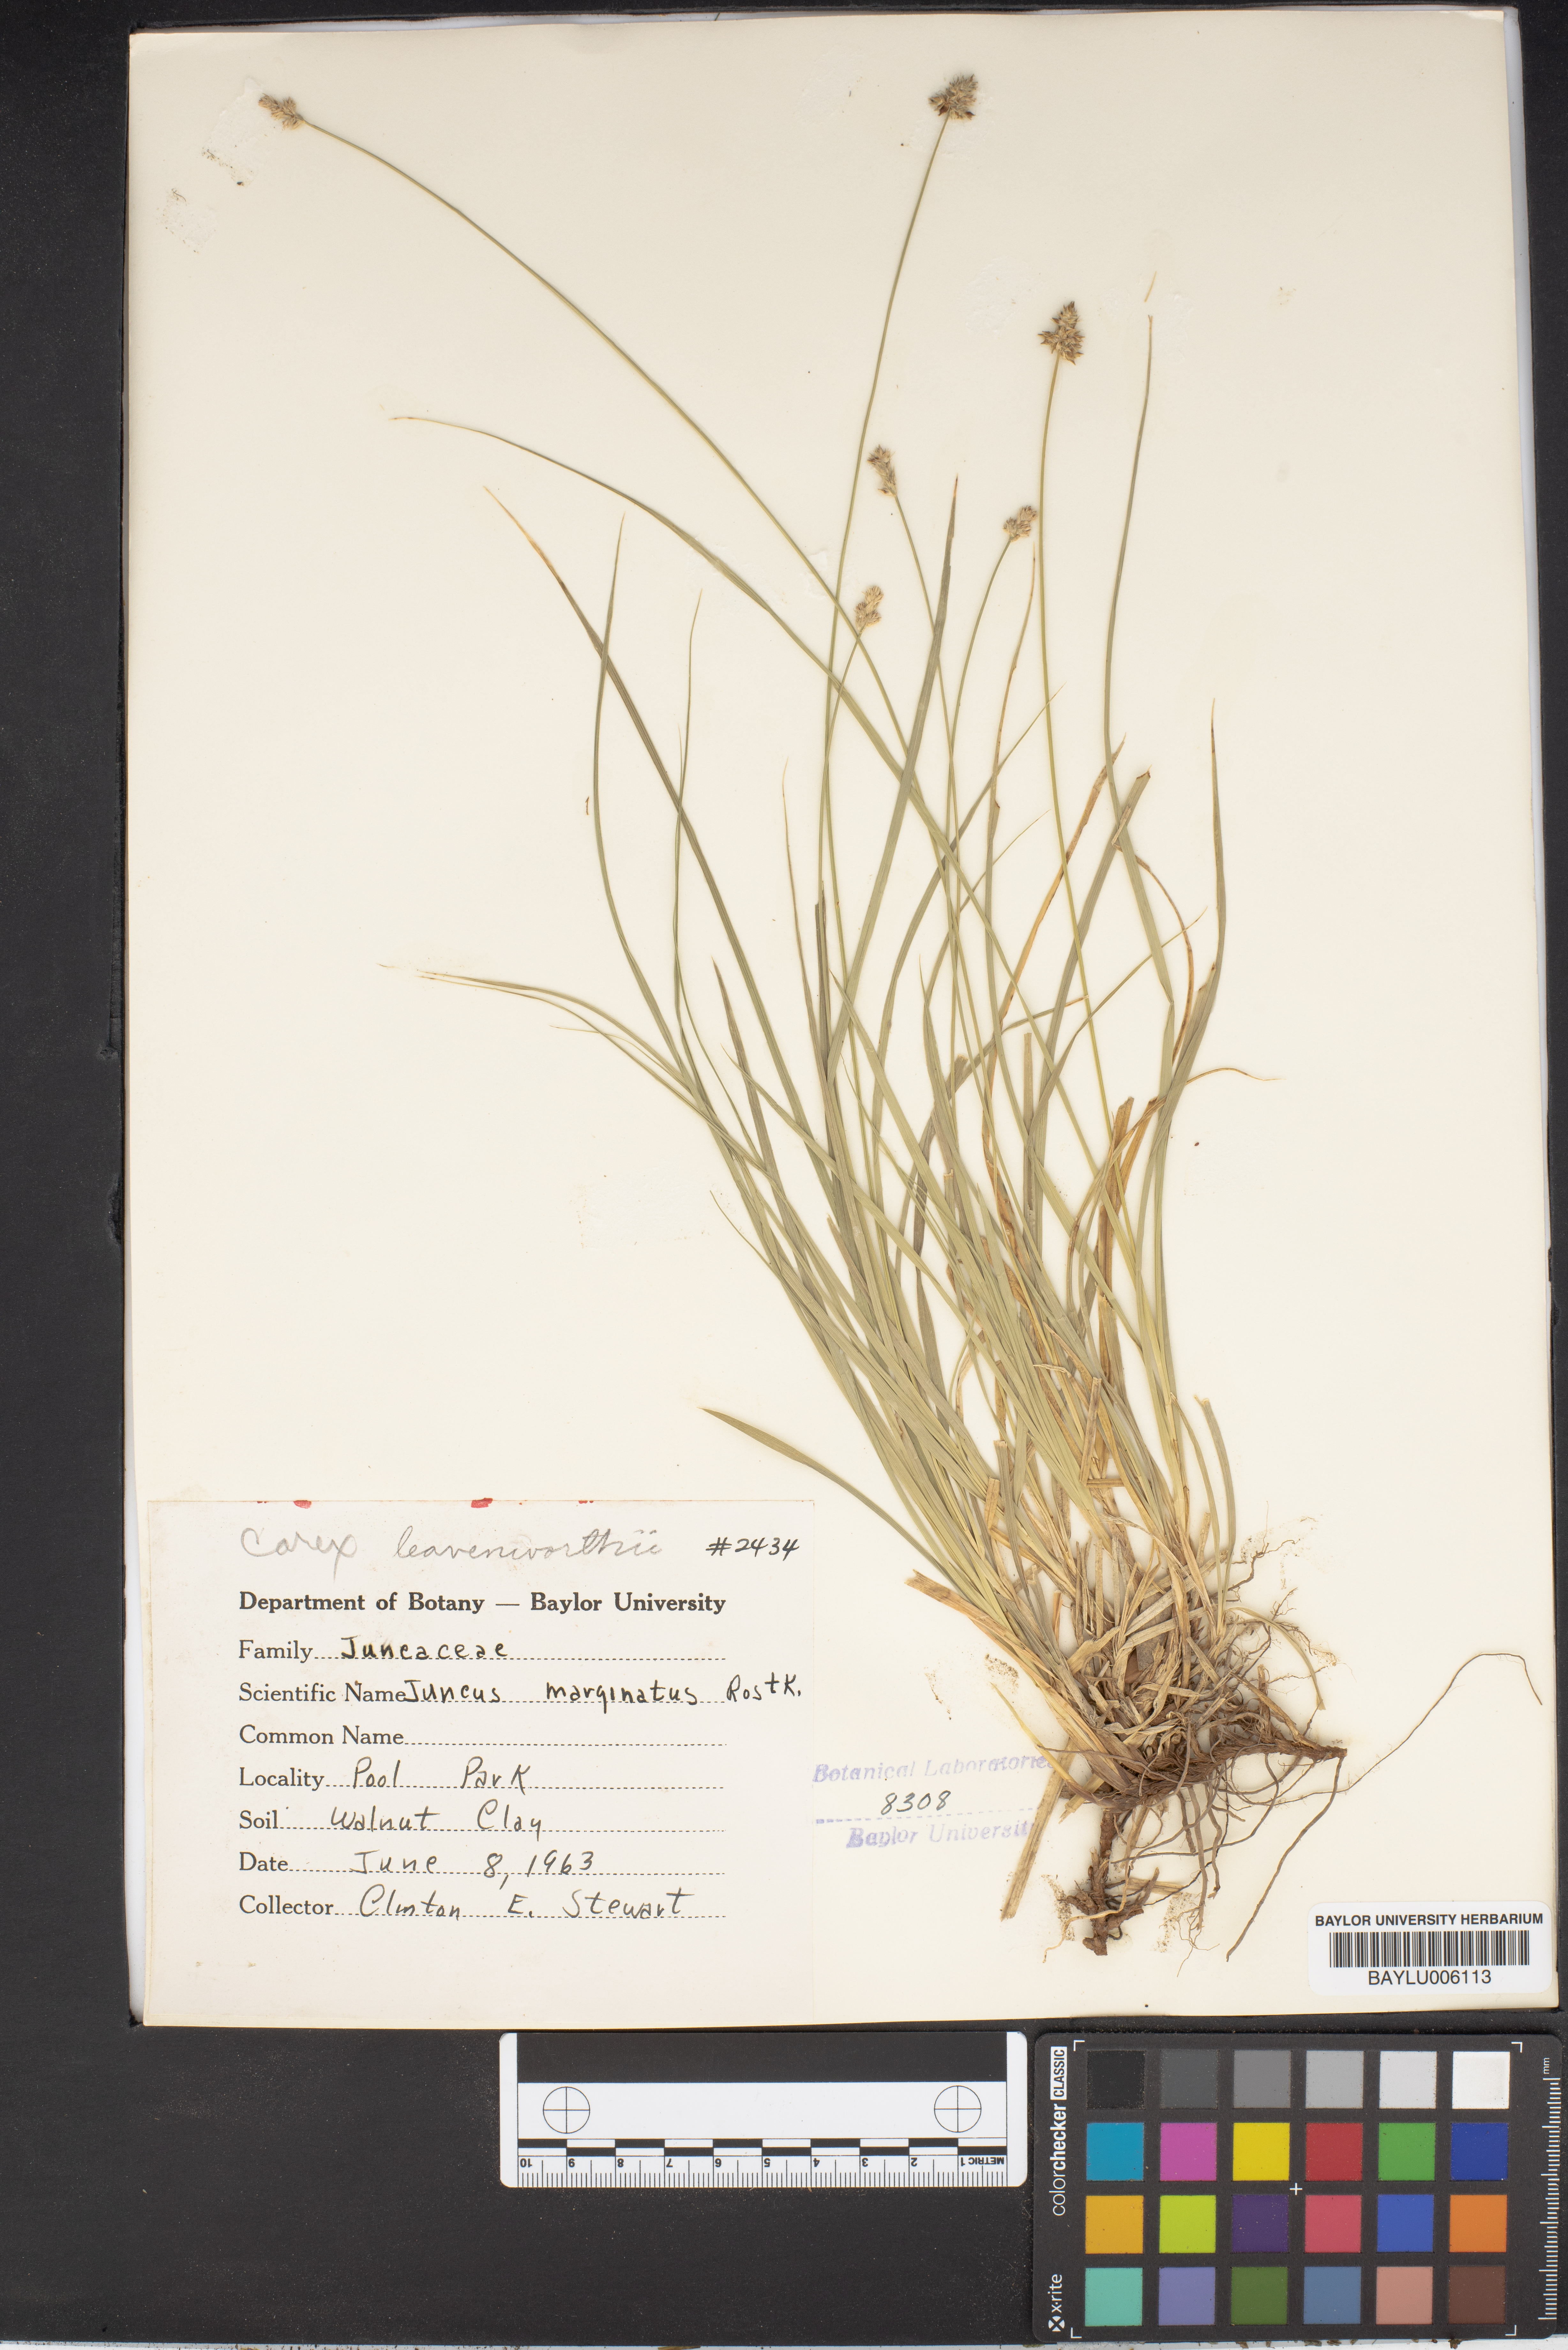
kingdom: Plantae
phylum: Tracheophyta
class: Liliopsida
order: Poales
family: Juncaceae
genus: Juncus
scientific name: Juncus marginatus
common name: Grass-leaf rush
